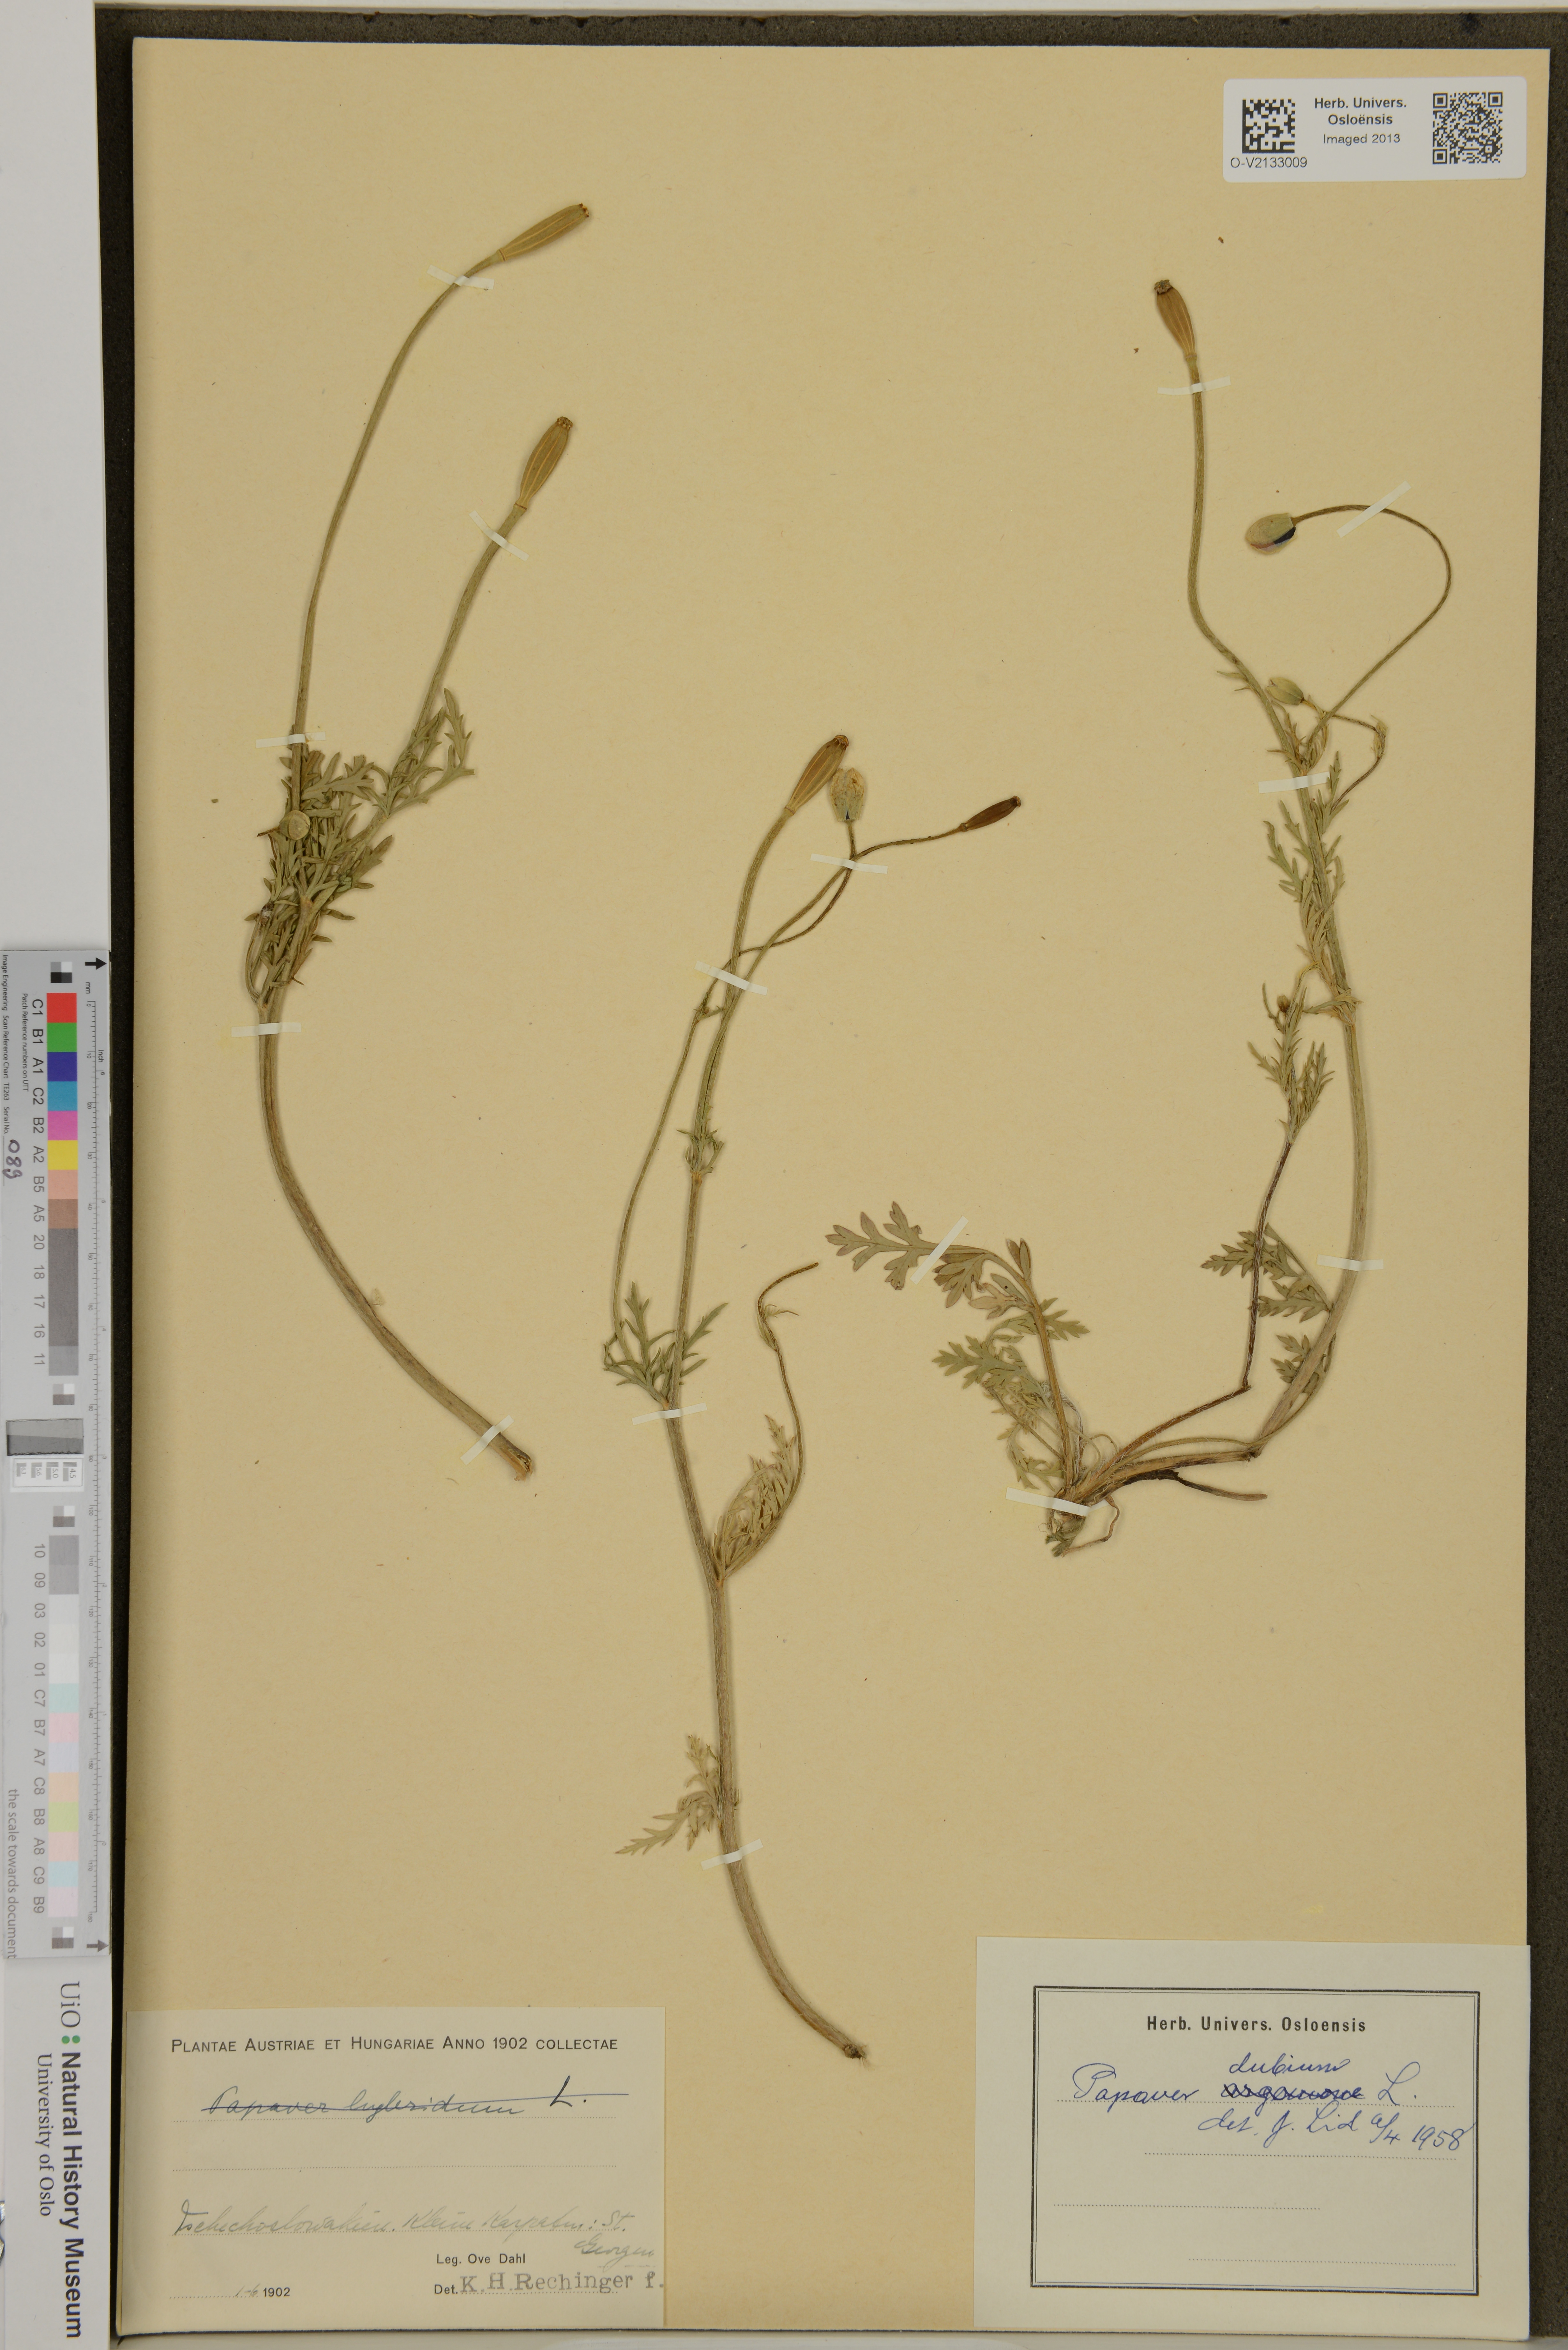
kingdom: Plantae
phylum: Tracheophyta
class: Magnoliopsida
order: Ranunculales
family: Papaveraceae
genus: Papaver
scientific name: Papaver dubium
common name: Long-headed poppy
